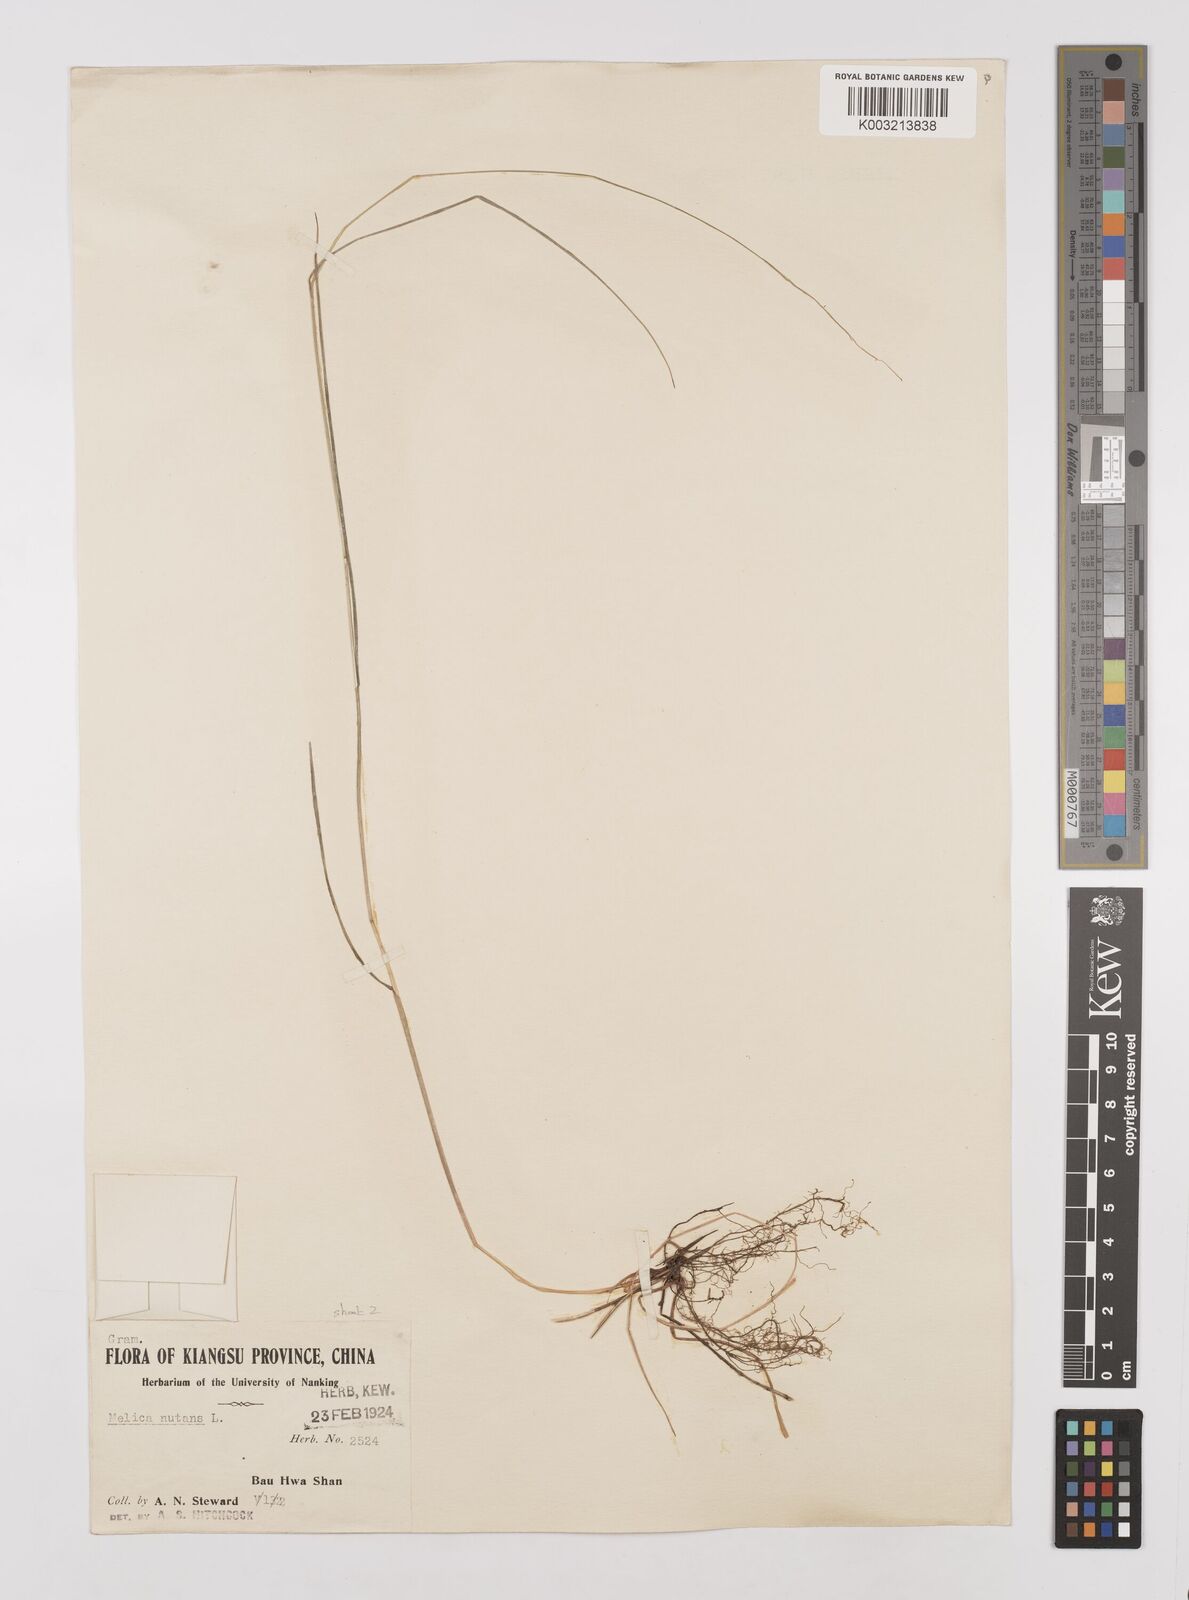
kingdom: Plantae
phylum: Tracheophyta
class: Liliopsida
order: Poales
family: Poaceae
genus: Melica
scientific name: Melica nutans
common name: Mountain melick
